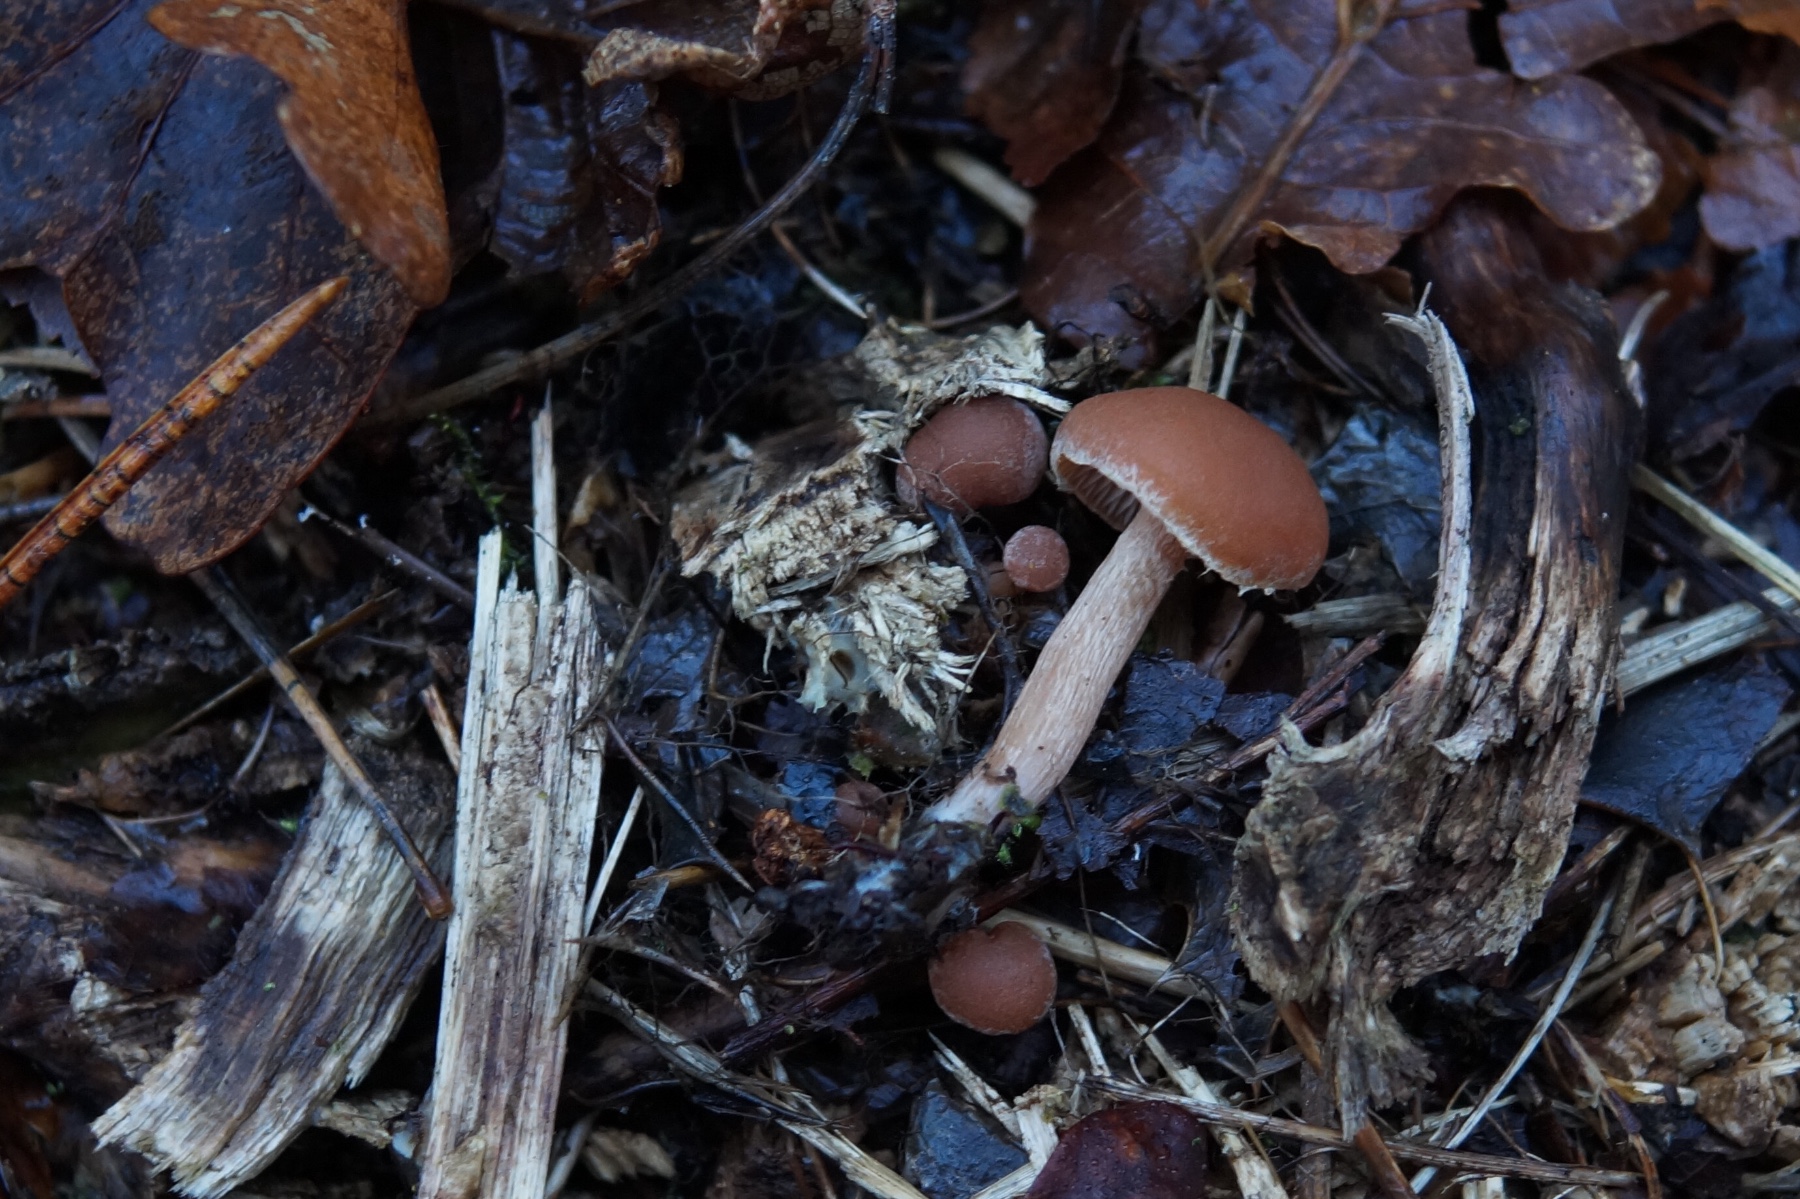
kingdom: Fungi
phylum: Basidiomycota
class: Agaricomycetes
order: Agaricales
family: Tubariaceae
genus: Tubaria
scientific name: Tubaria furfuracea
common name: kliddet fnughat
